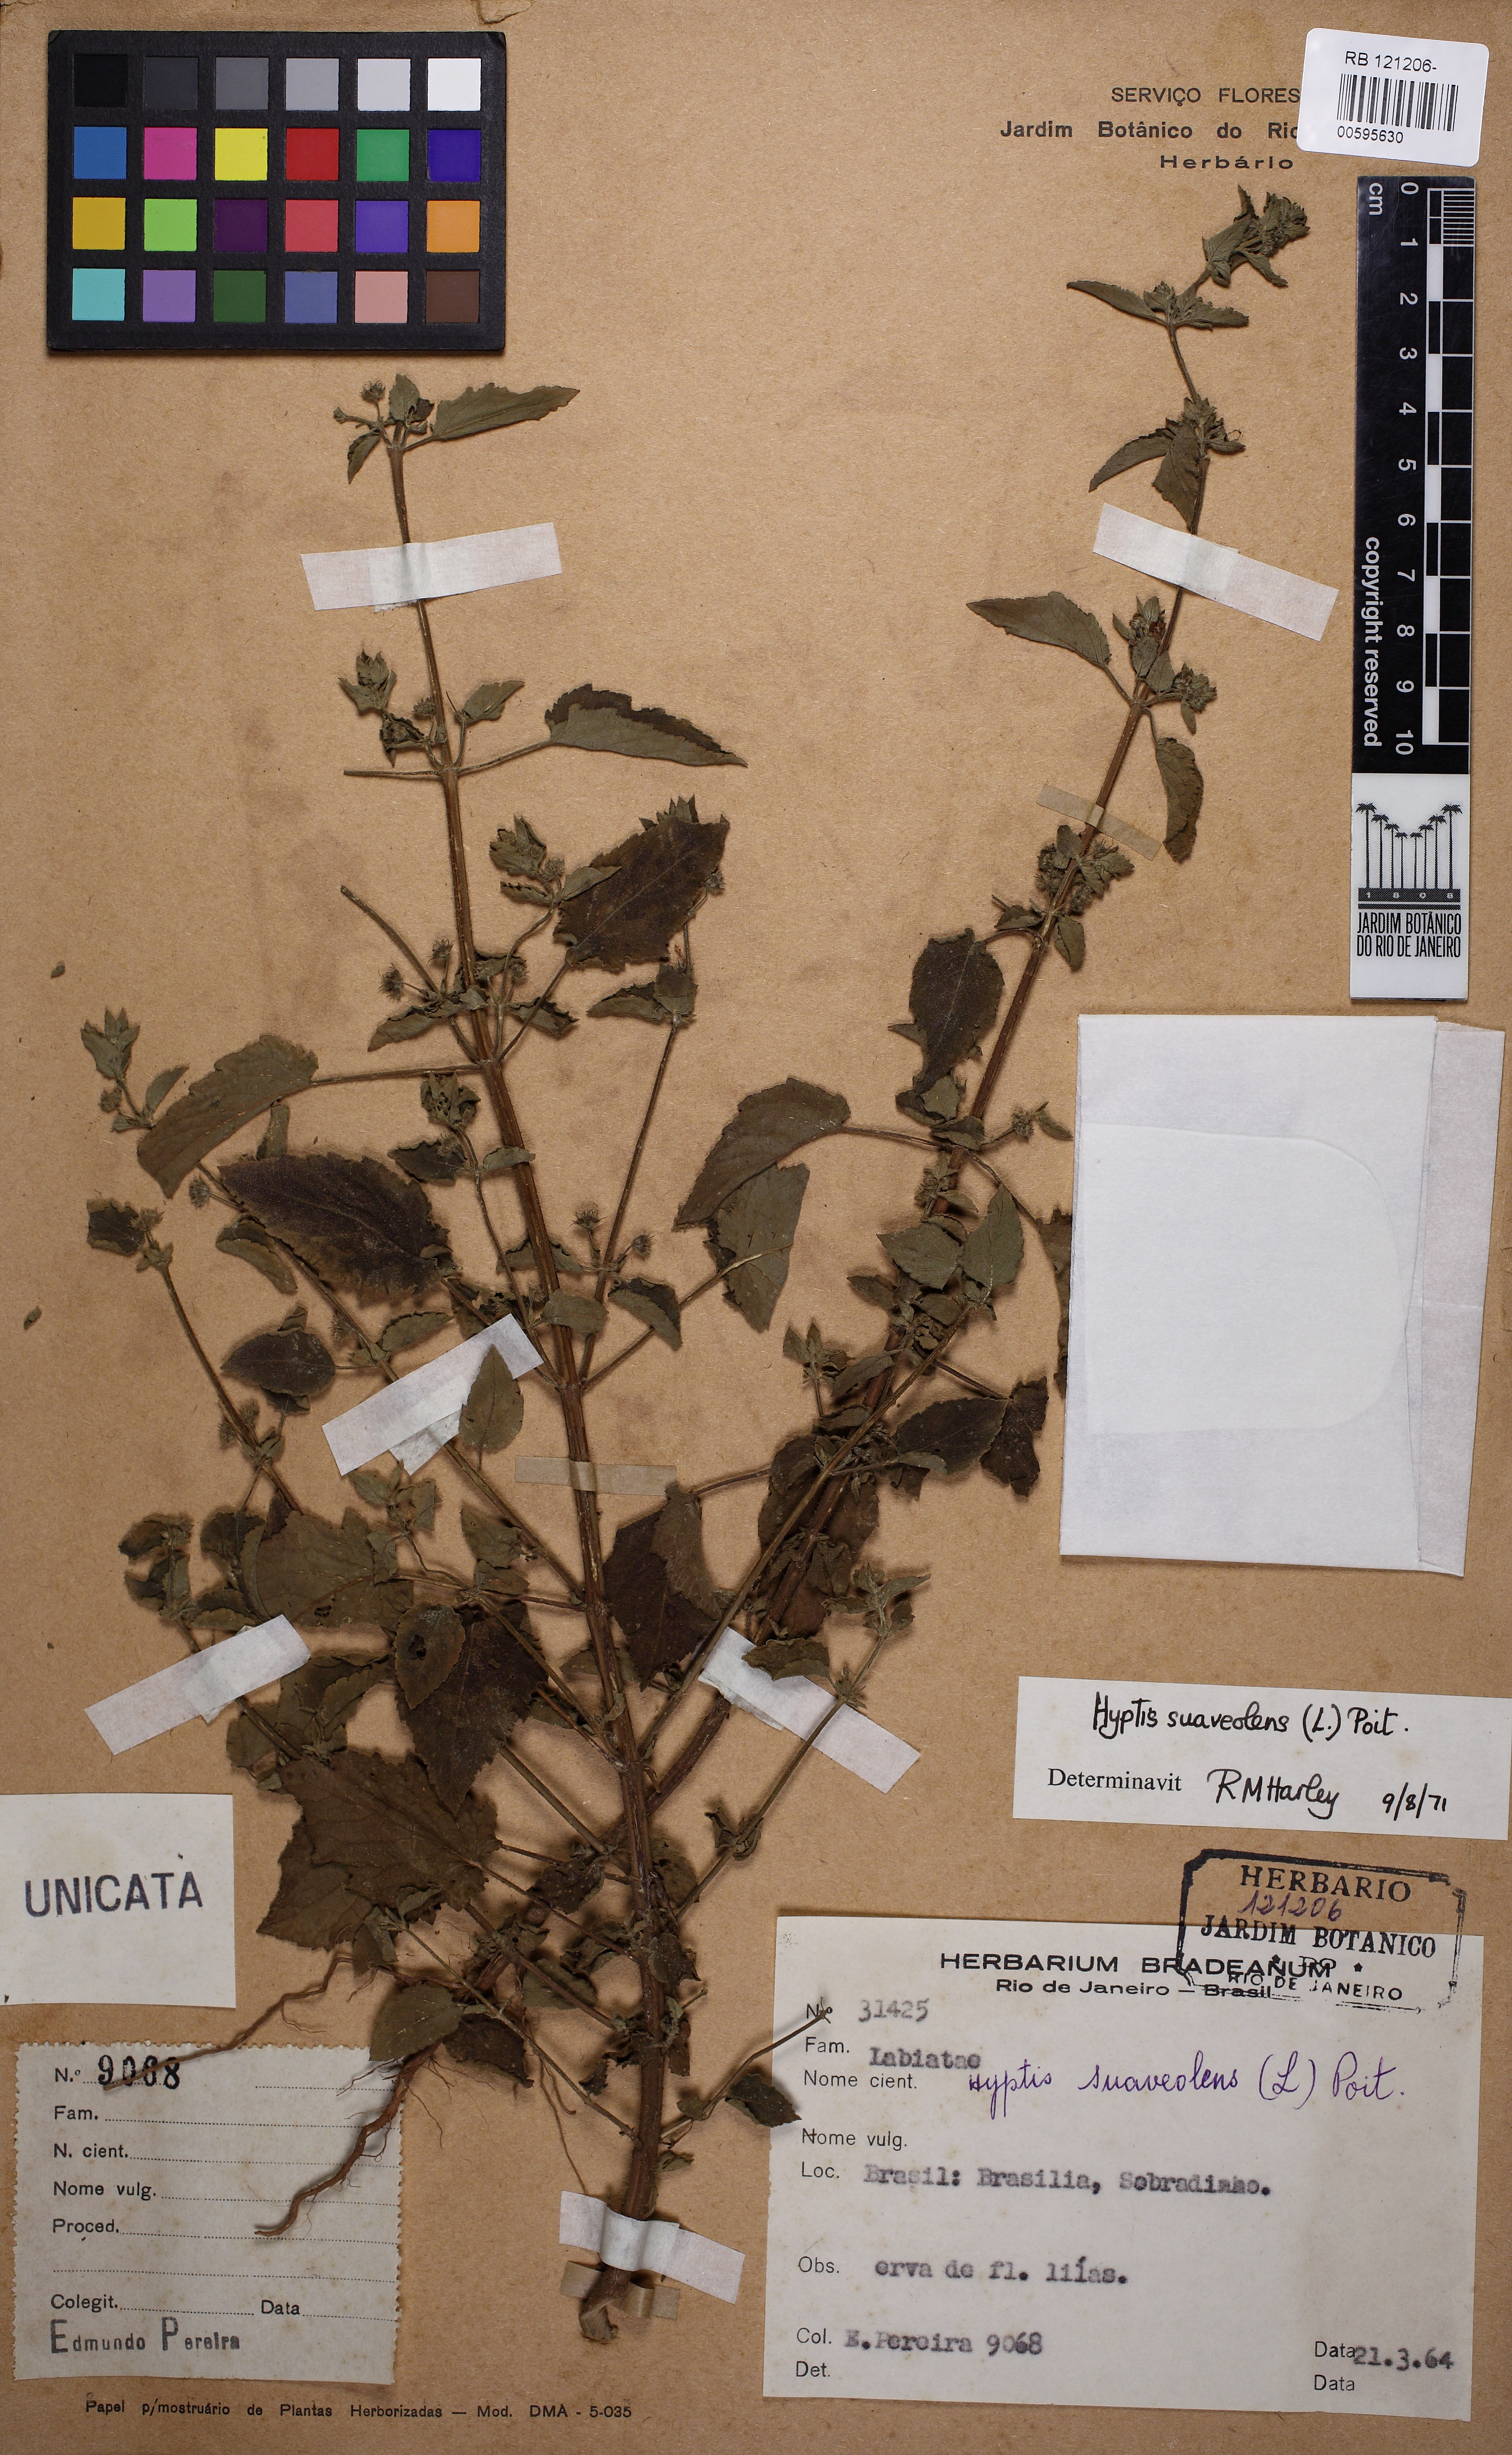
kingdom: Plantae
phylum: Tracheophyta
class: Magnoliopsida
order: Lamiales
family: Lamiaceae
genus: Mesosphaerum
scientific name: Mesosphaerum suaveolens
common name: Pignut
